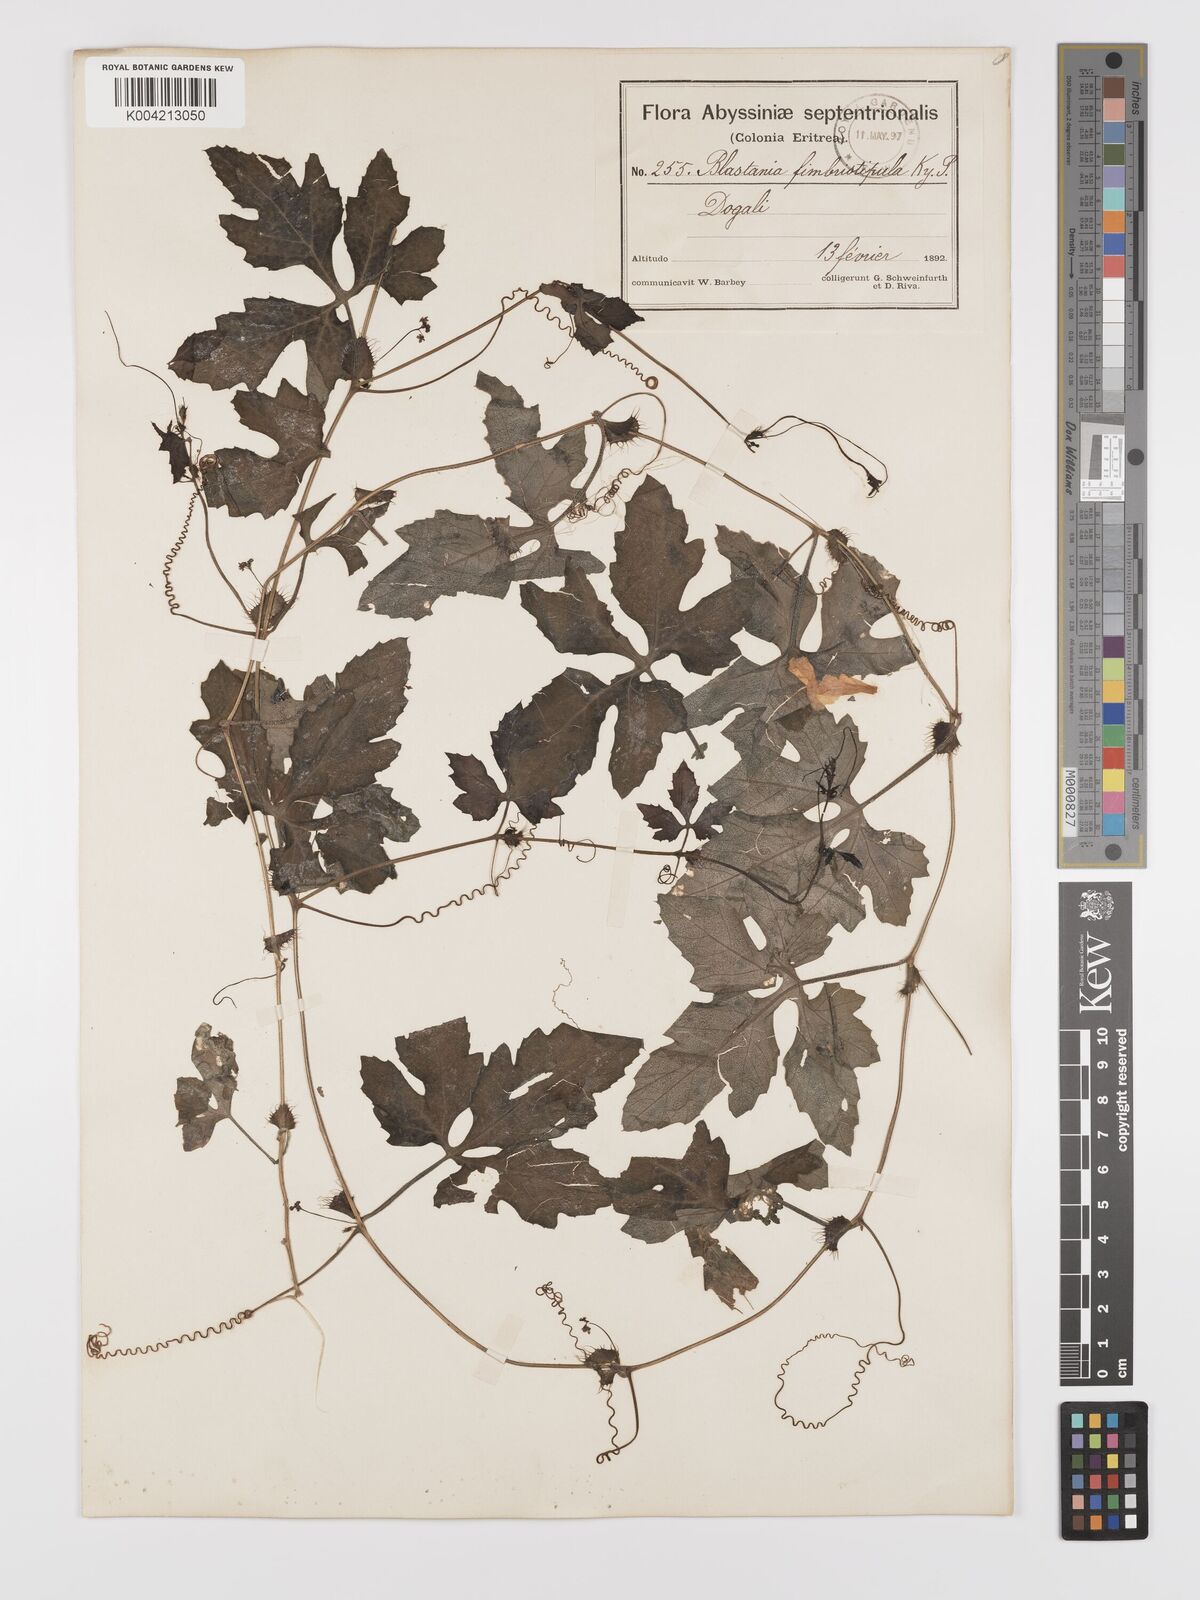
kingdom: Plantae
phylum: Tracheophyta
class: Magnoliopsida
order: Cucurbitales
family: Cucurbitaceae
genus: Blastania
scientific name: Blastania cerasiformis
